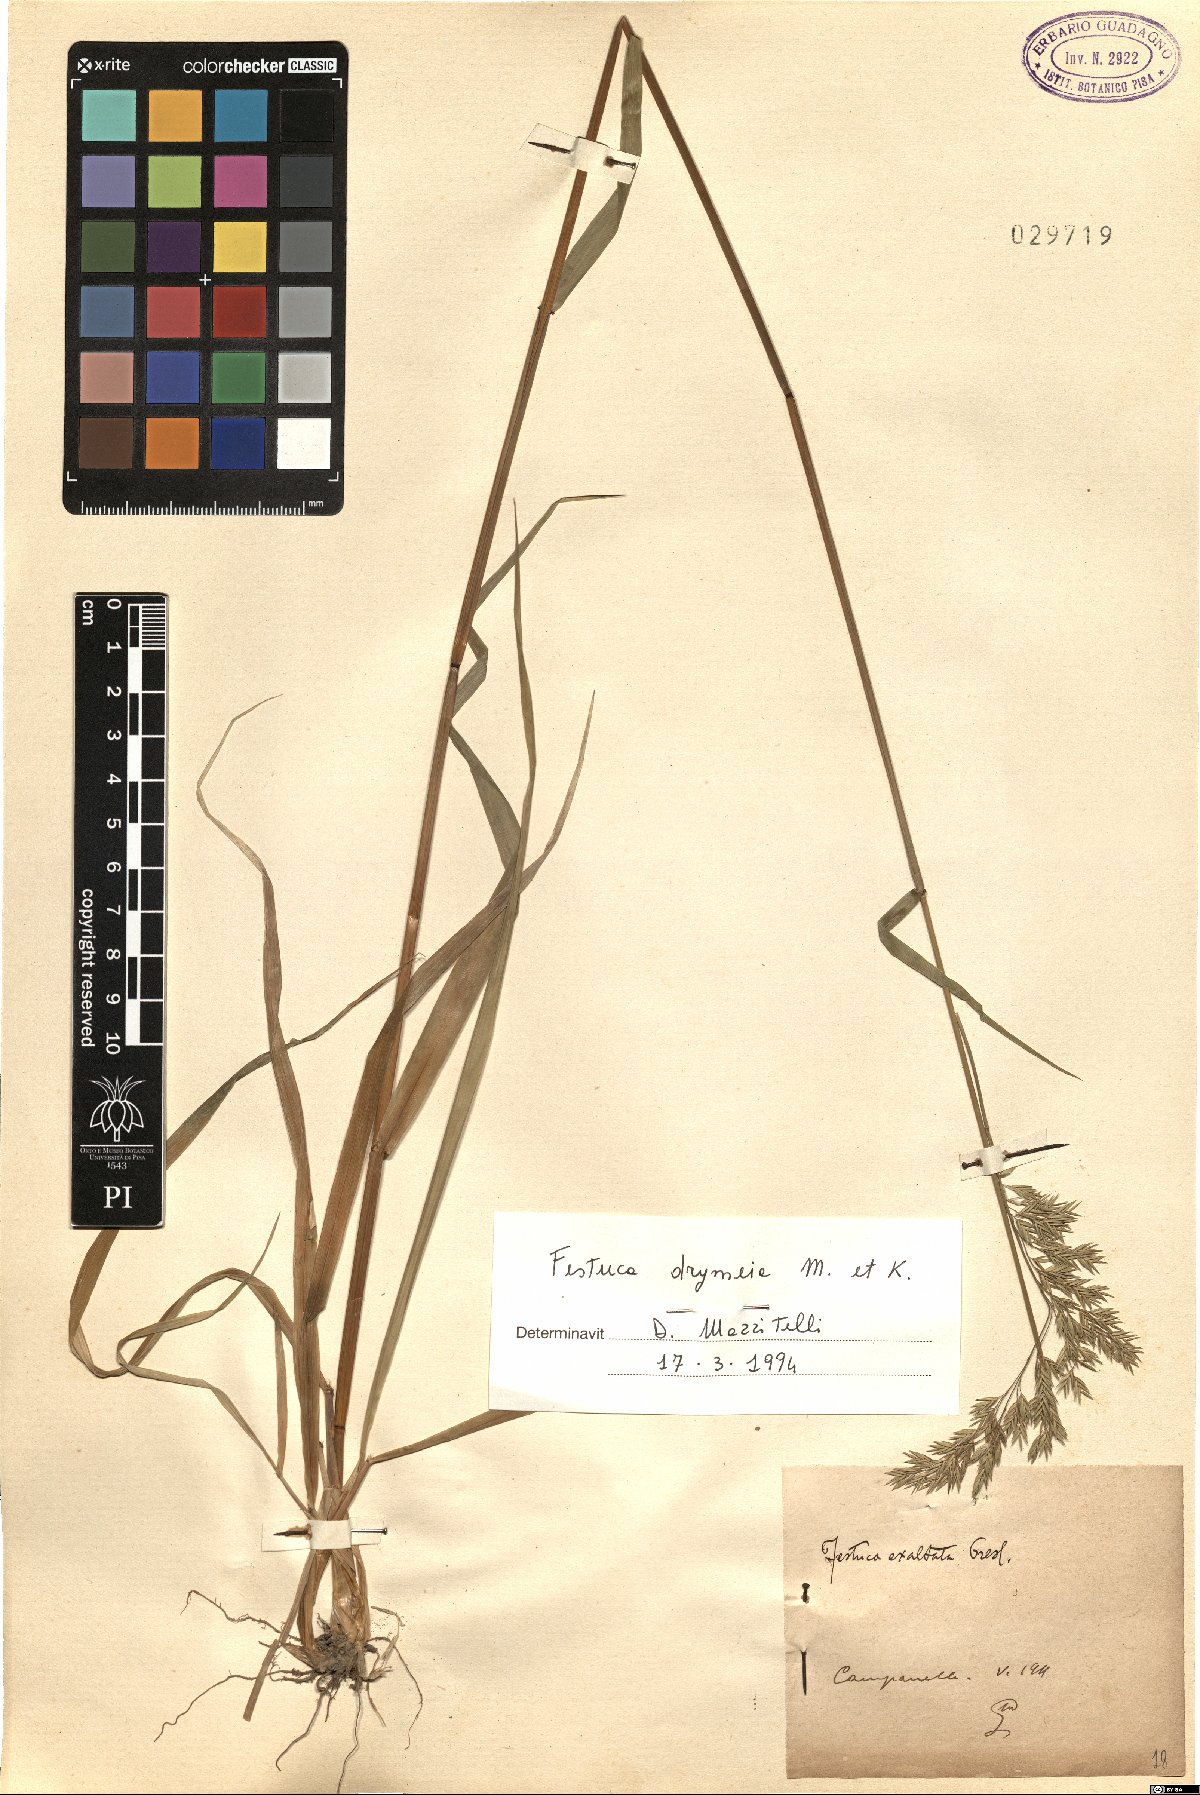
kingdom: Plantae
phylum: Tracheophyta
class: Liliopsida
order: Poales
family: Poaceae
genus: Festuca
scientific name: Festuca drymeja
